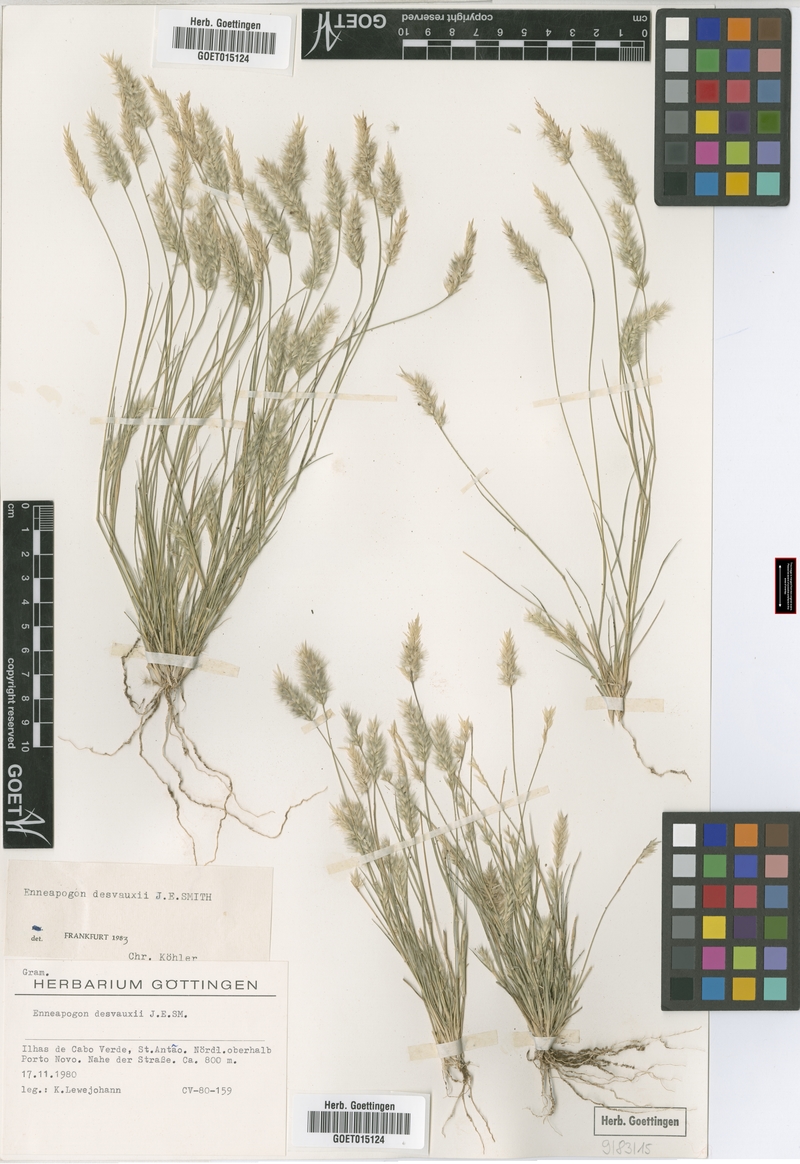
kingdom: Plantae
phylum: Tracheophyta
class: Liliopsida
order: Poales
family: Poaceae
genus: Enneapogon
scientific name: Enneapogon desvauxii
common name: Feather pappus grass
